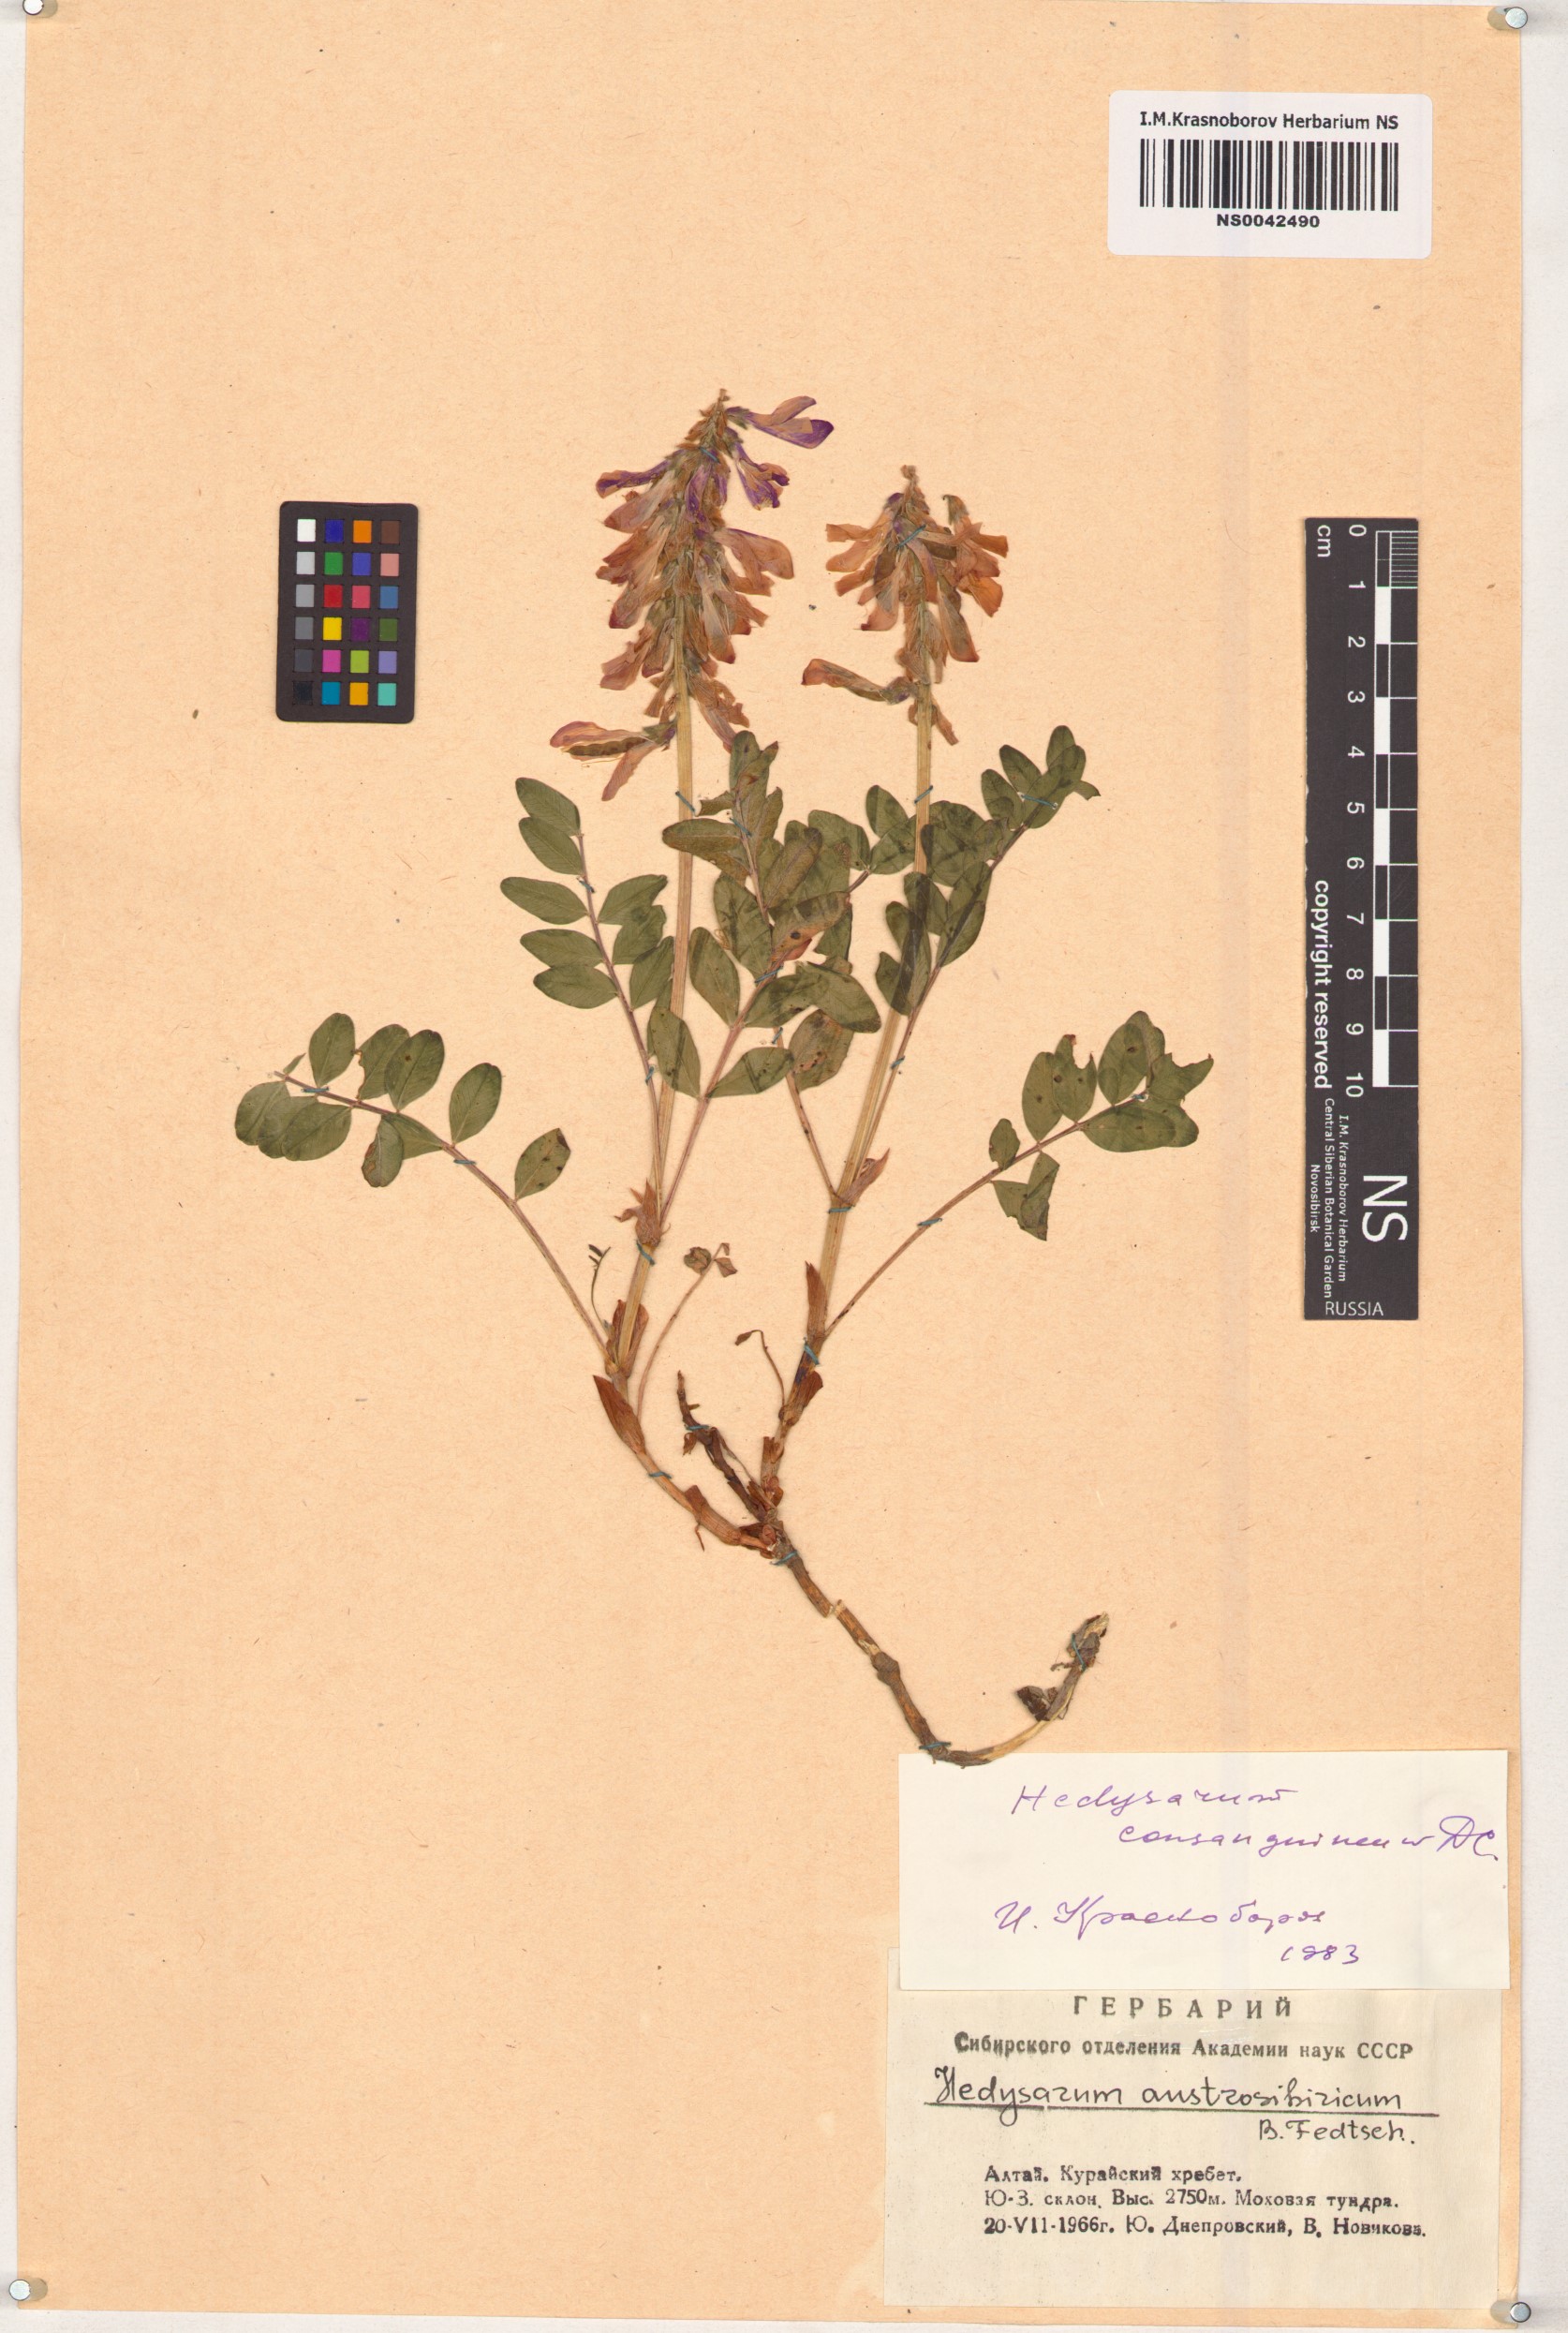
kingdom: Plantae
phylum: Tracheophyta
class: Magnoliopsida
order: Fabales
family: Fabaceae
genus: Hedysarum
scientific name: Hedysarum consanguineum
